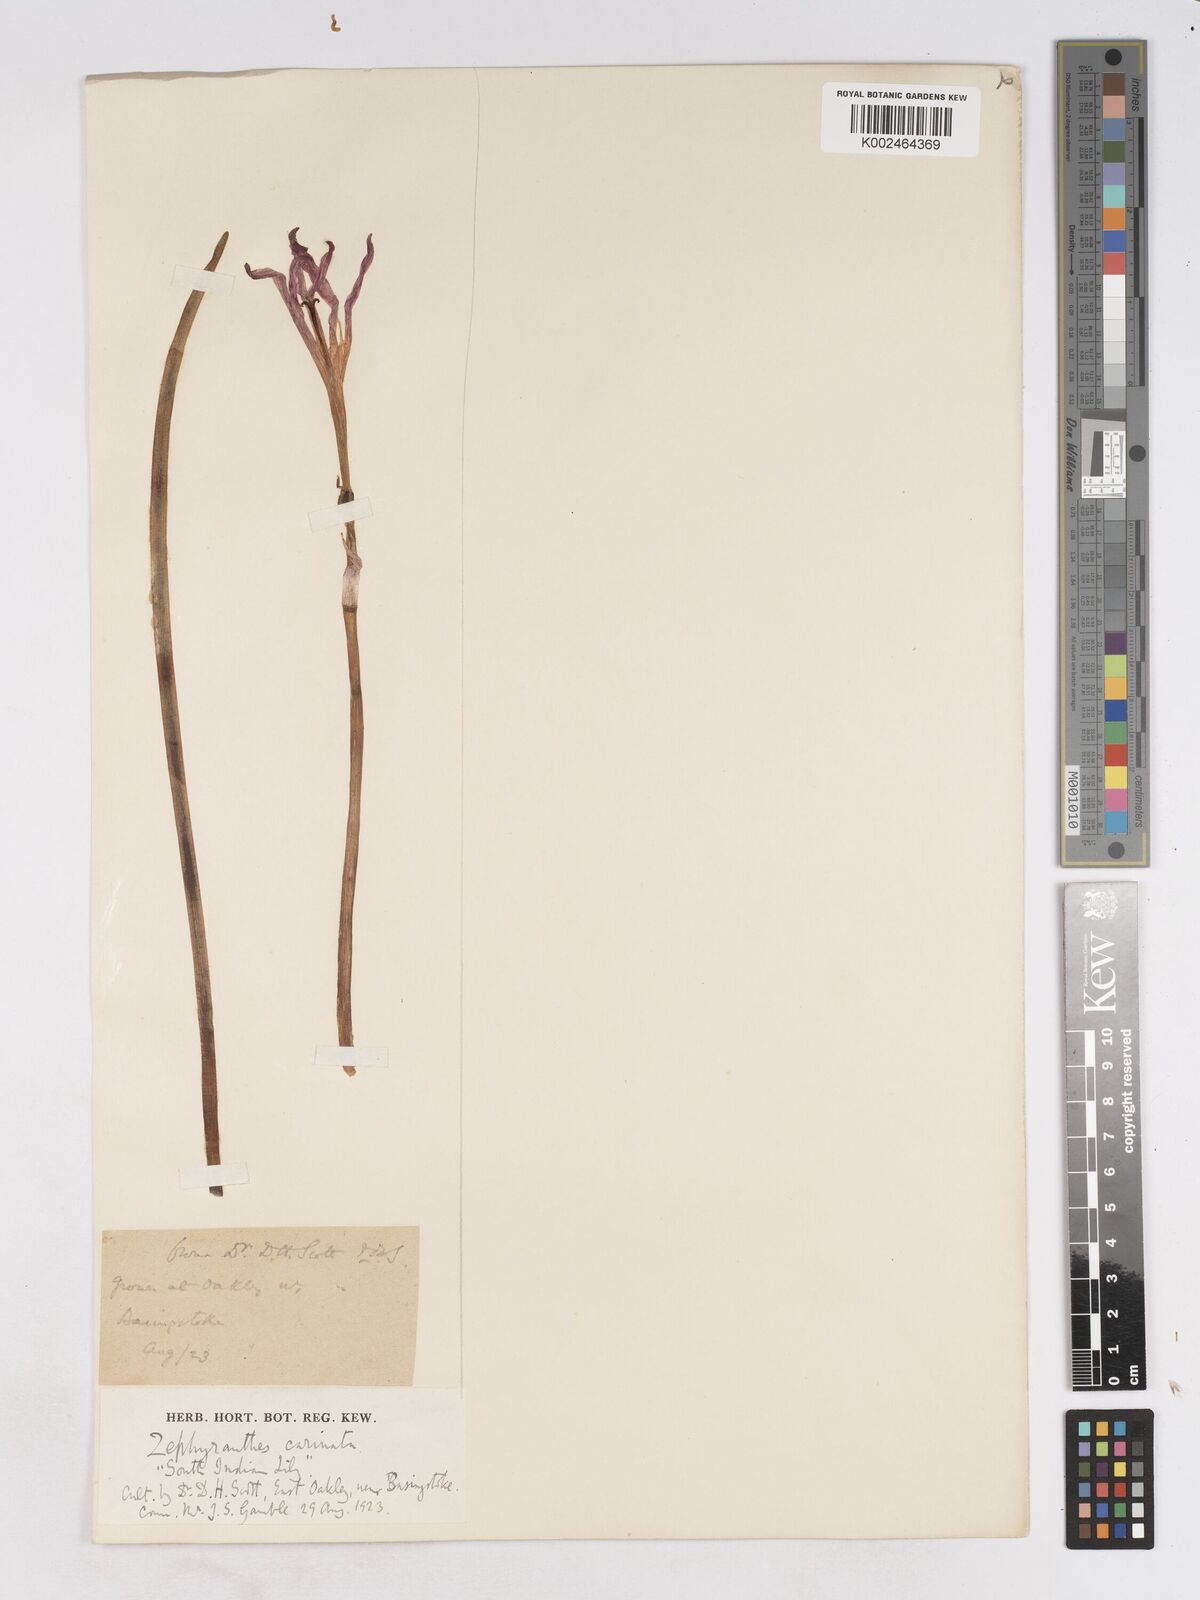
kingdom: Plantae
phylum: Tracheophyta
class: Liliopsida
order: Asparagales
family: Amaryllidaceae
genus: Zephyranthes
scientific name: Zephyranthes minuta
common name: Pink rain lily
